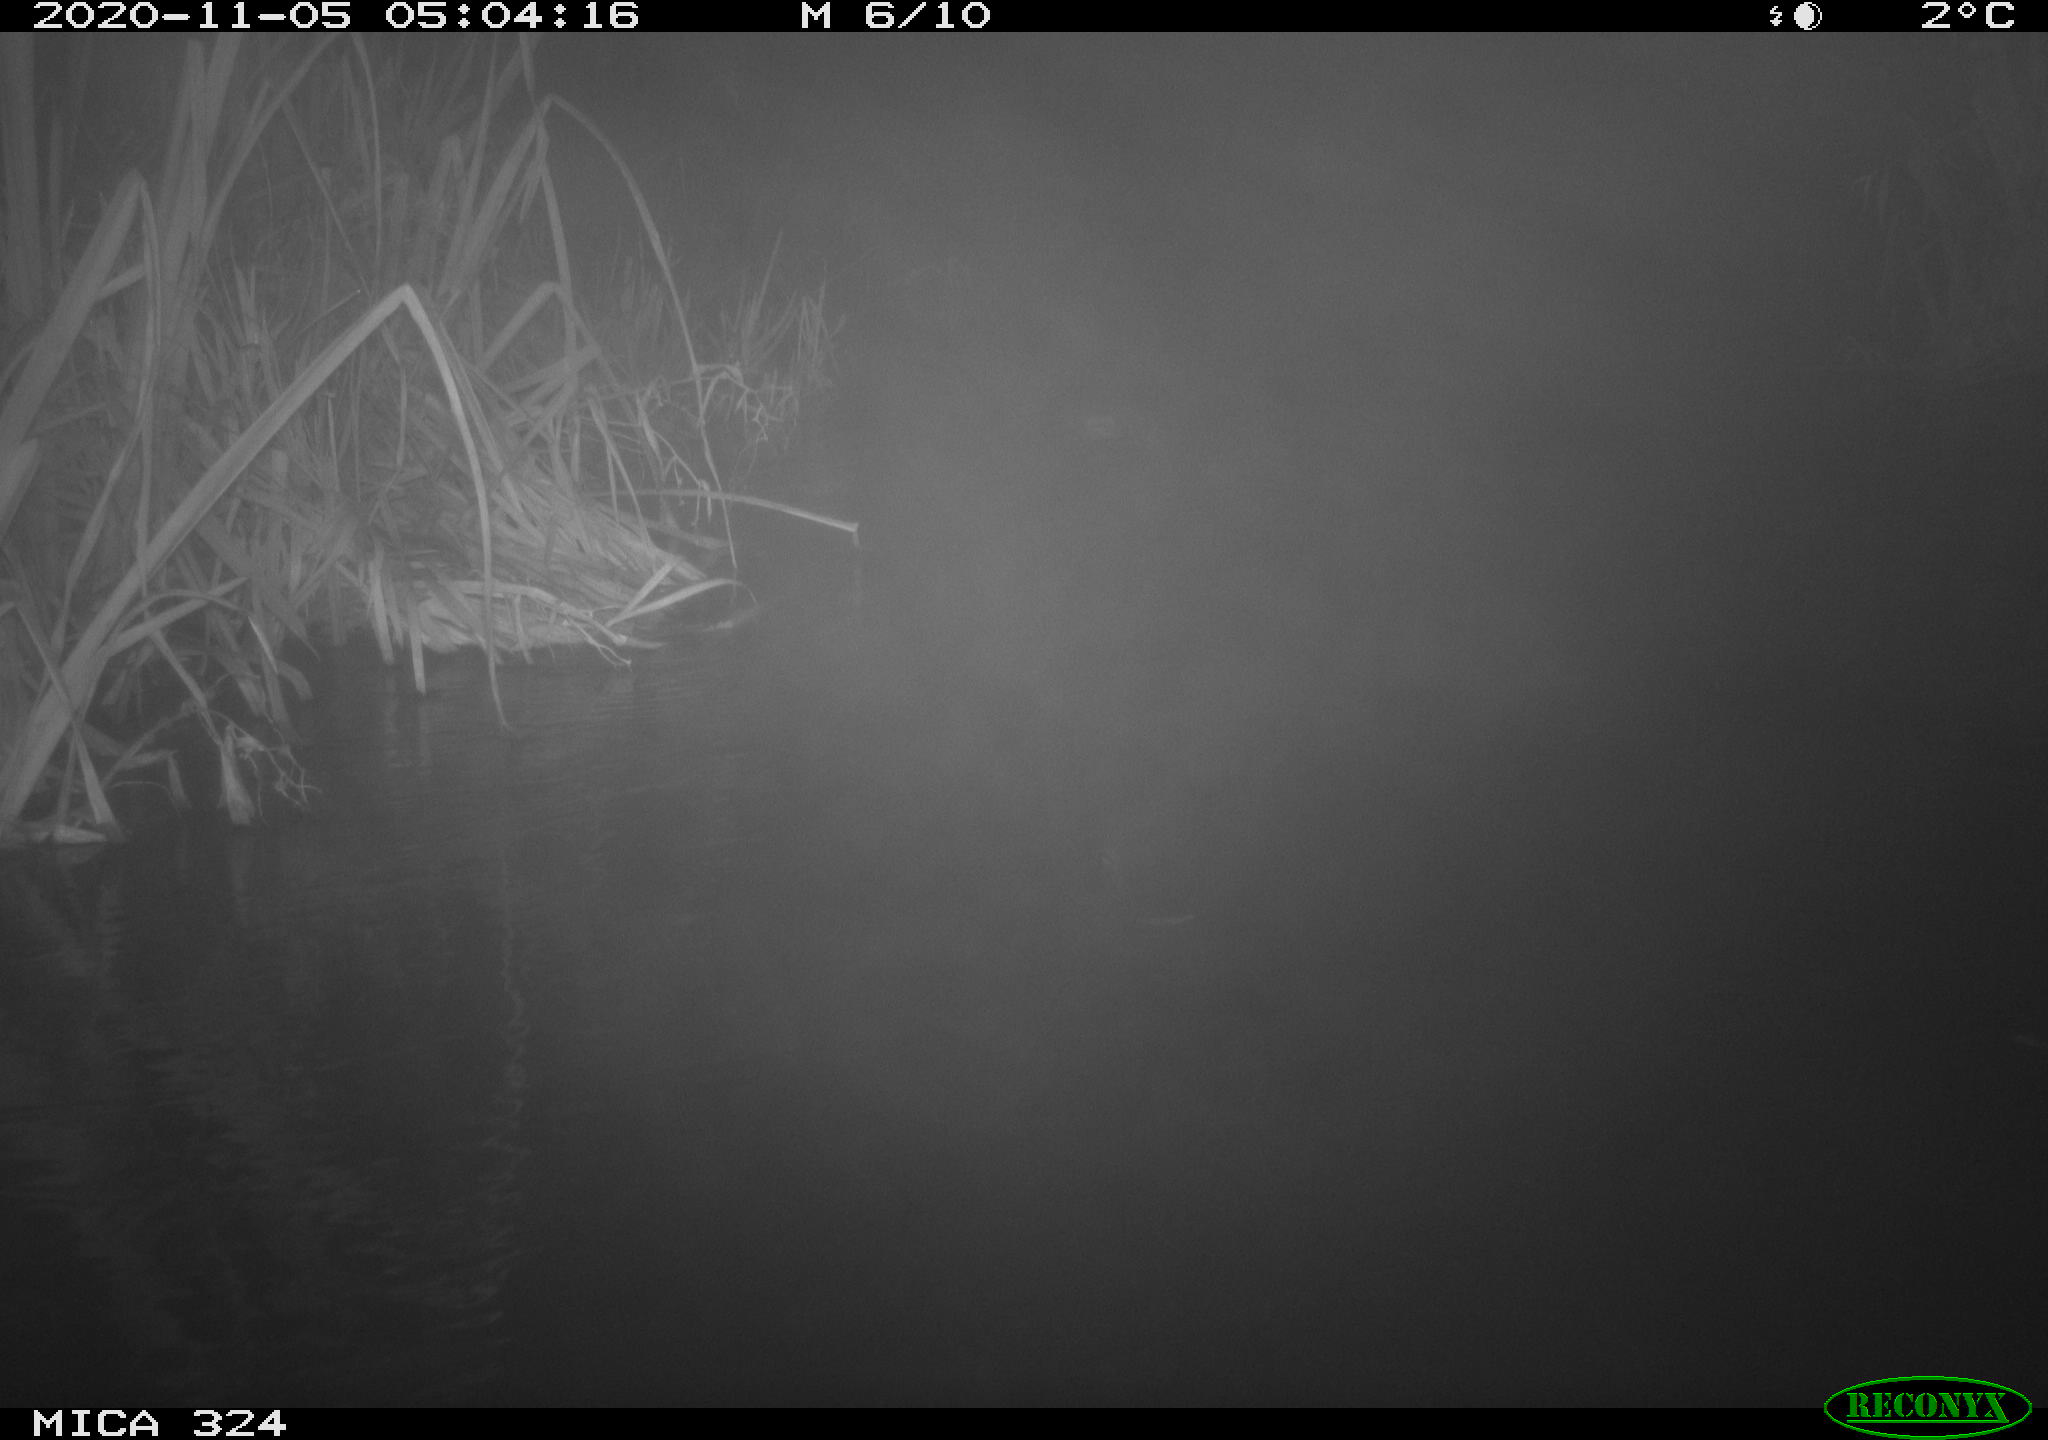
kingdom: Animalia
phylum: Chordata
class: Mammalia
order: Rodentia
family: Cricetidae
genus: Ondatra
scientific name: Ondatra zibethicus
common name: Muskrat
